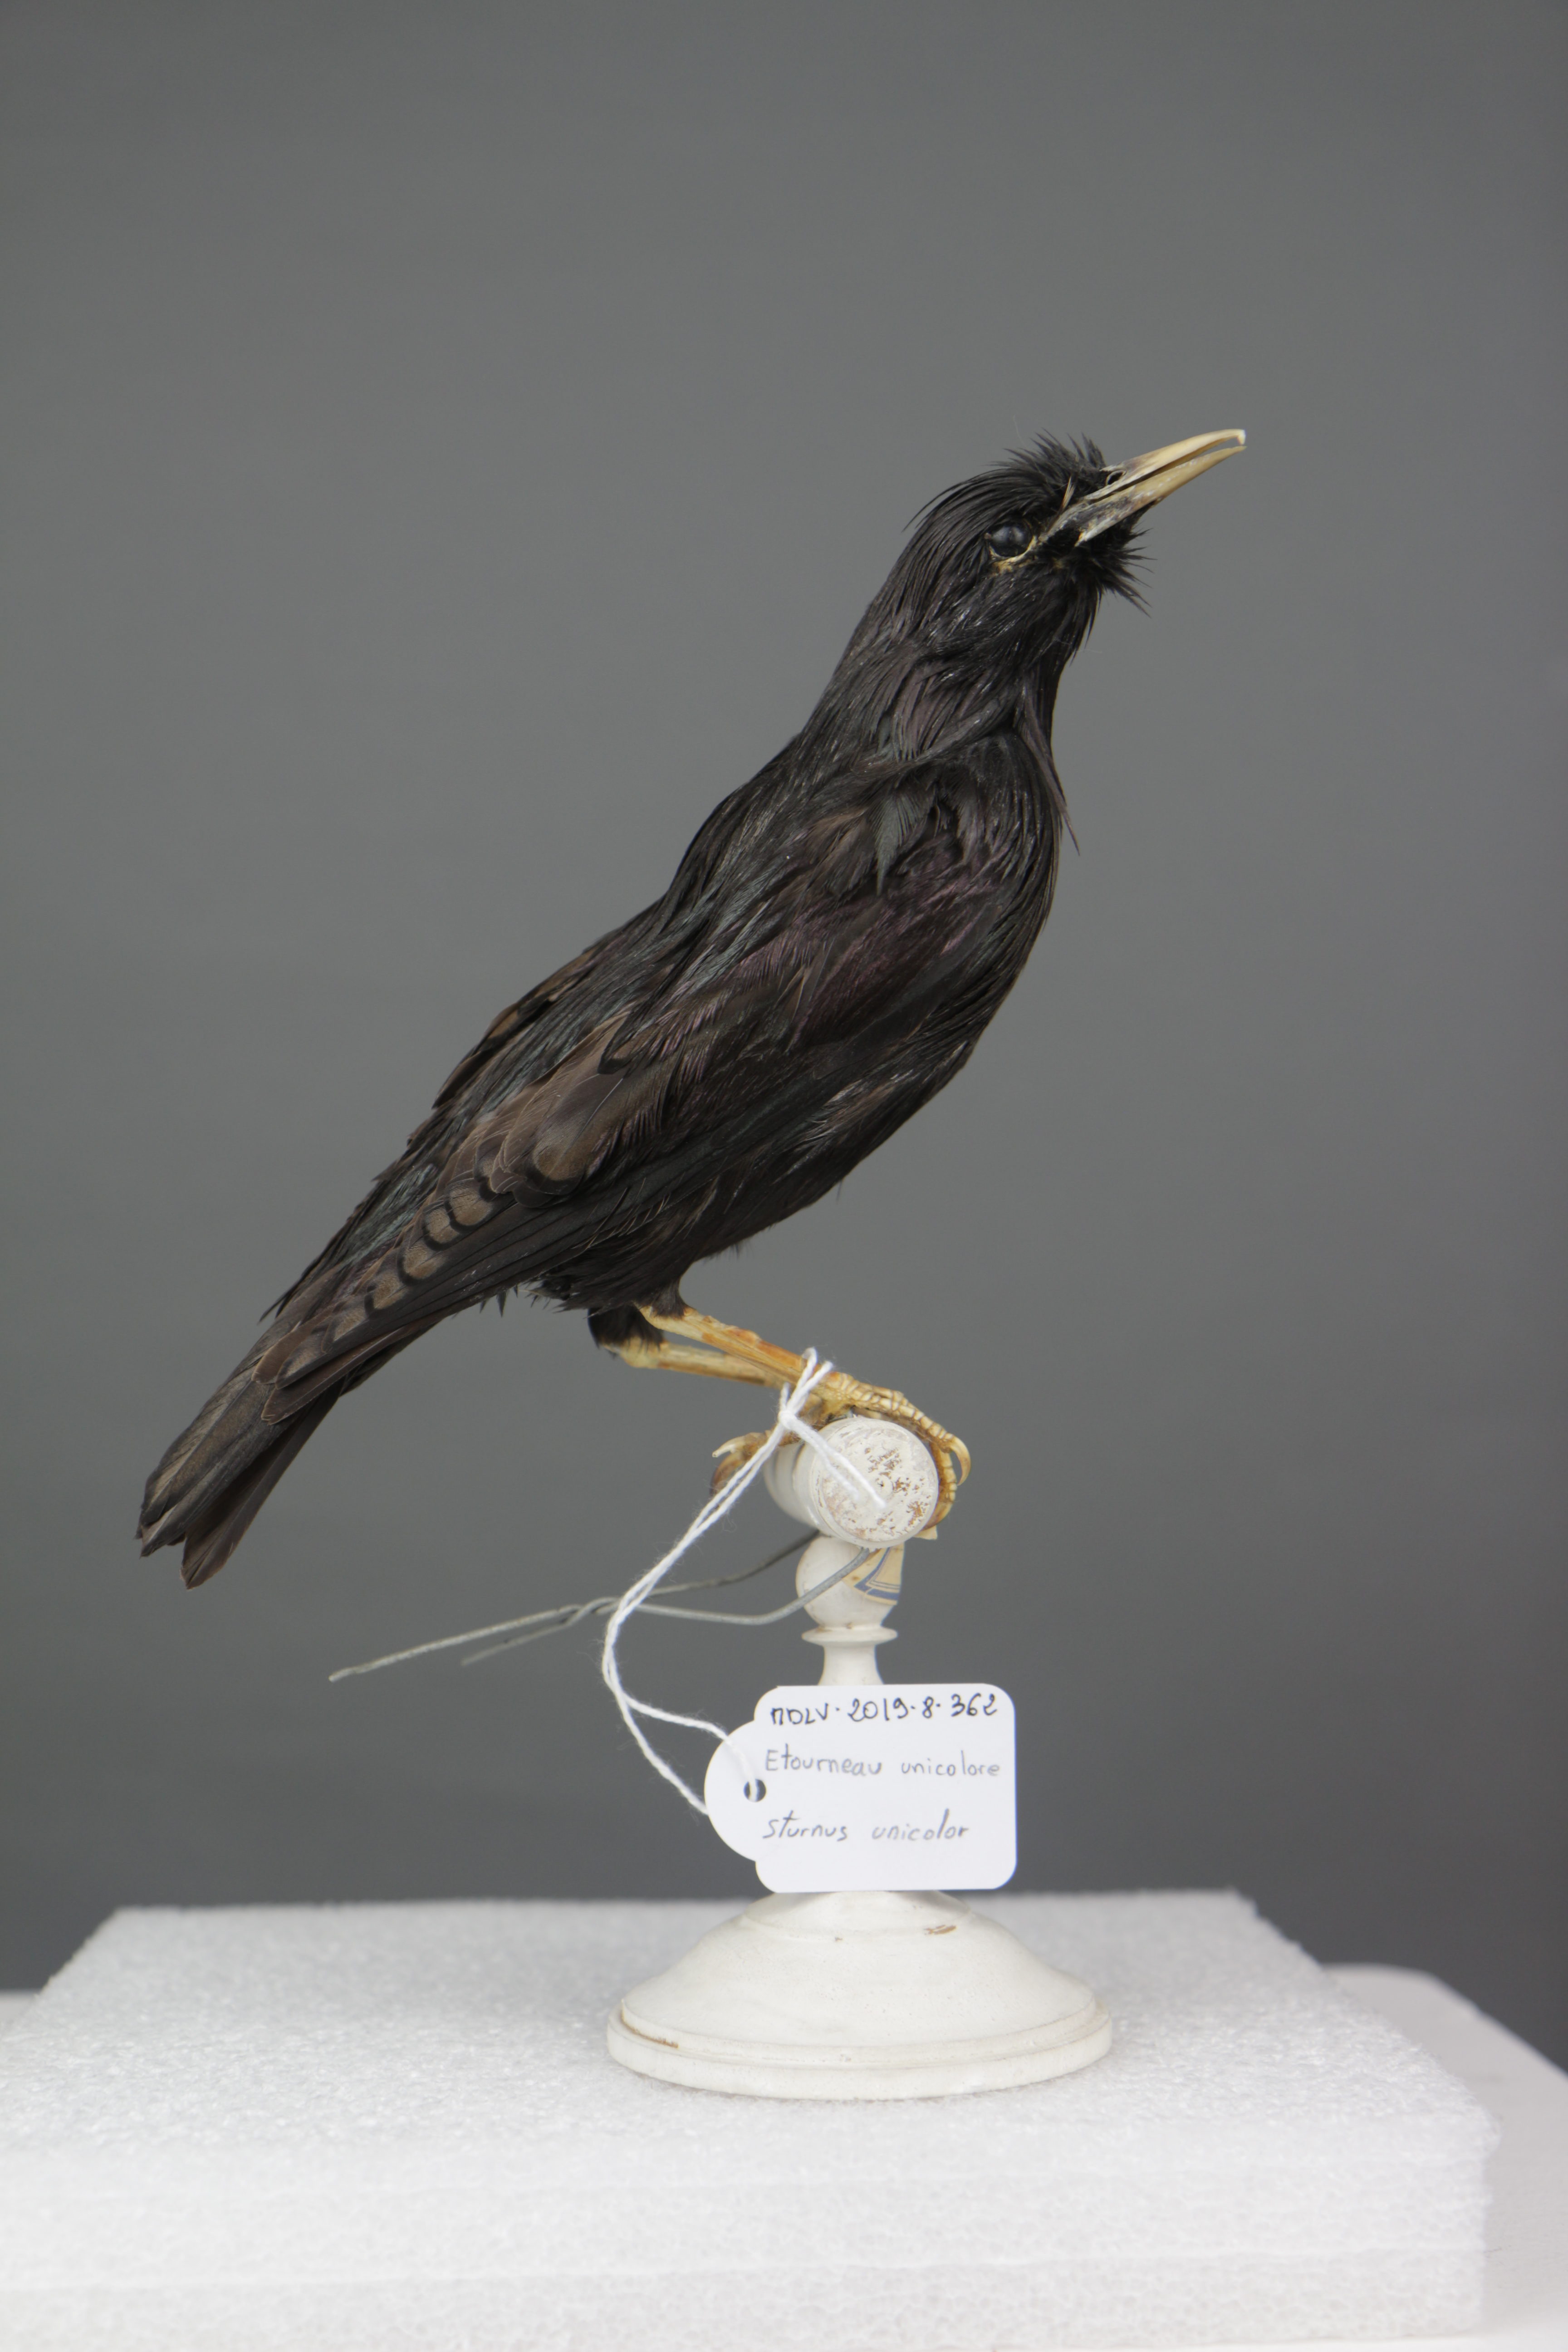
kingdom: Animalia
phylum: Chordata
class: Aves
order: Passeriformes
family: Sturnidae
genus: Sturnus
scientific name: Sturnus unicolor
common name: Spotless starling
